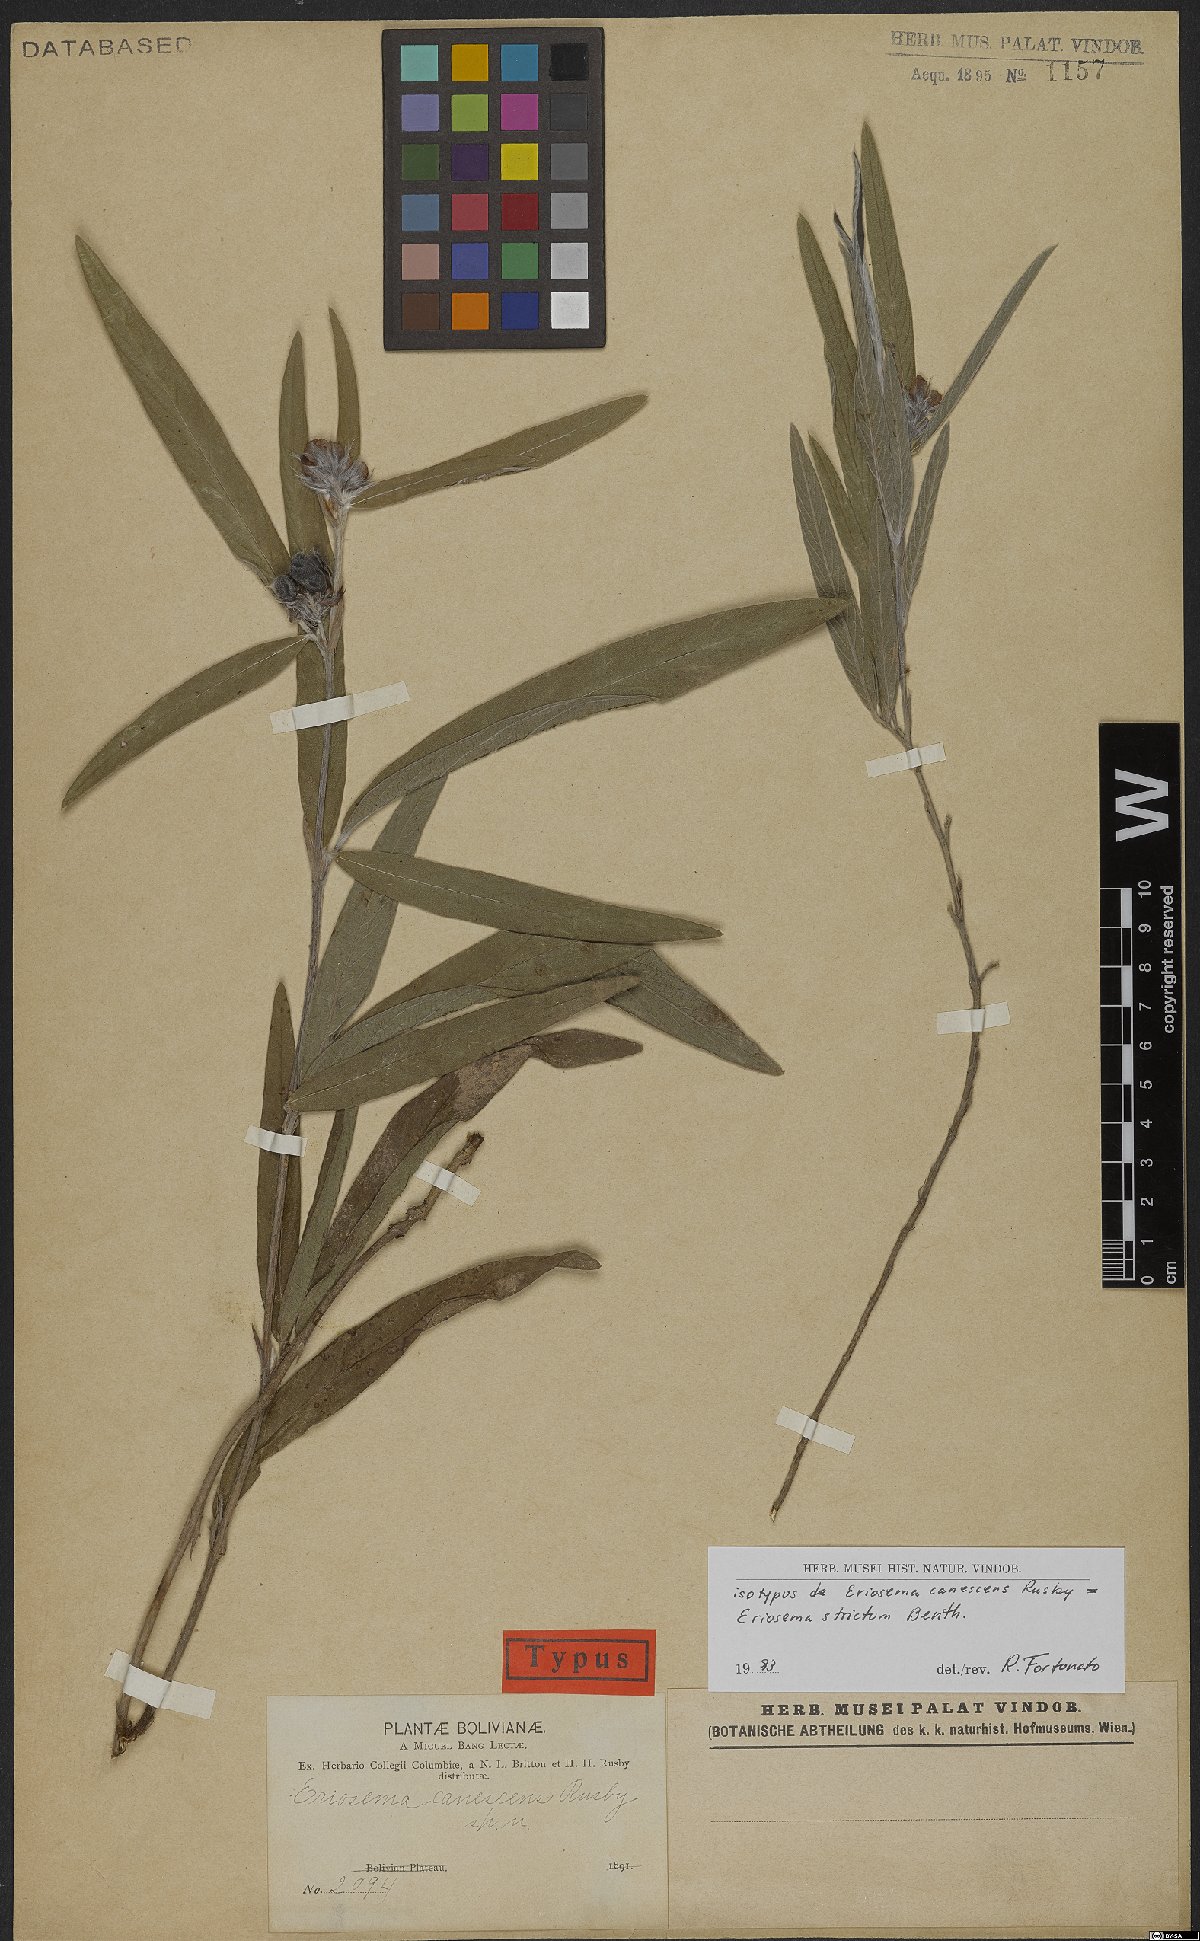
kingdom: Plantae
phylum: Tracheophyta
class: Magnoliopsida
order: Fabales
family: Fabaceae
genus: Eriosema
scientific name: Eriosema strictum
